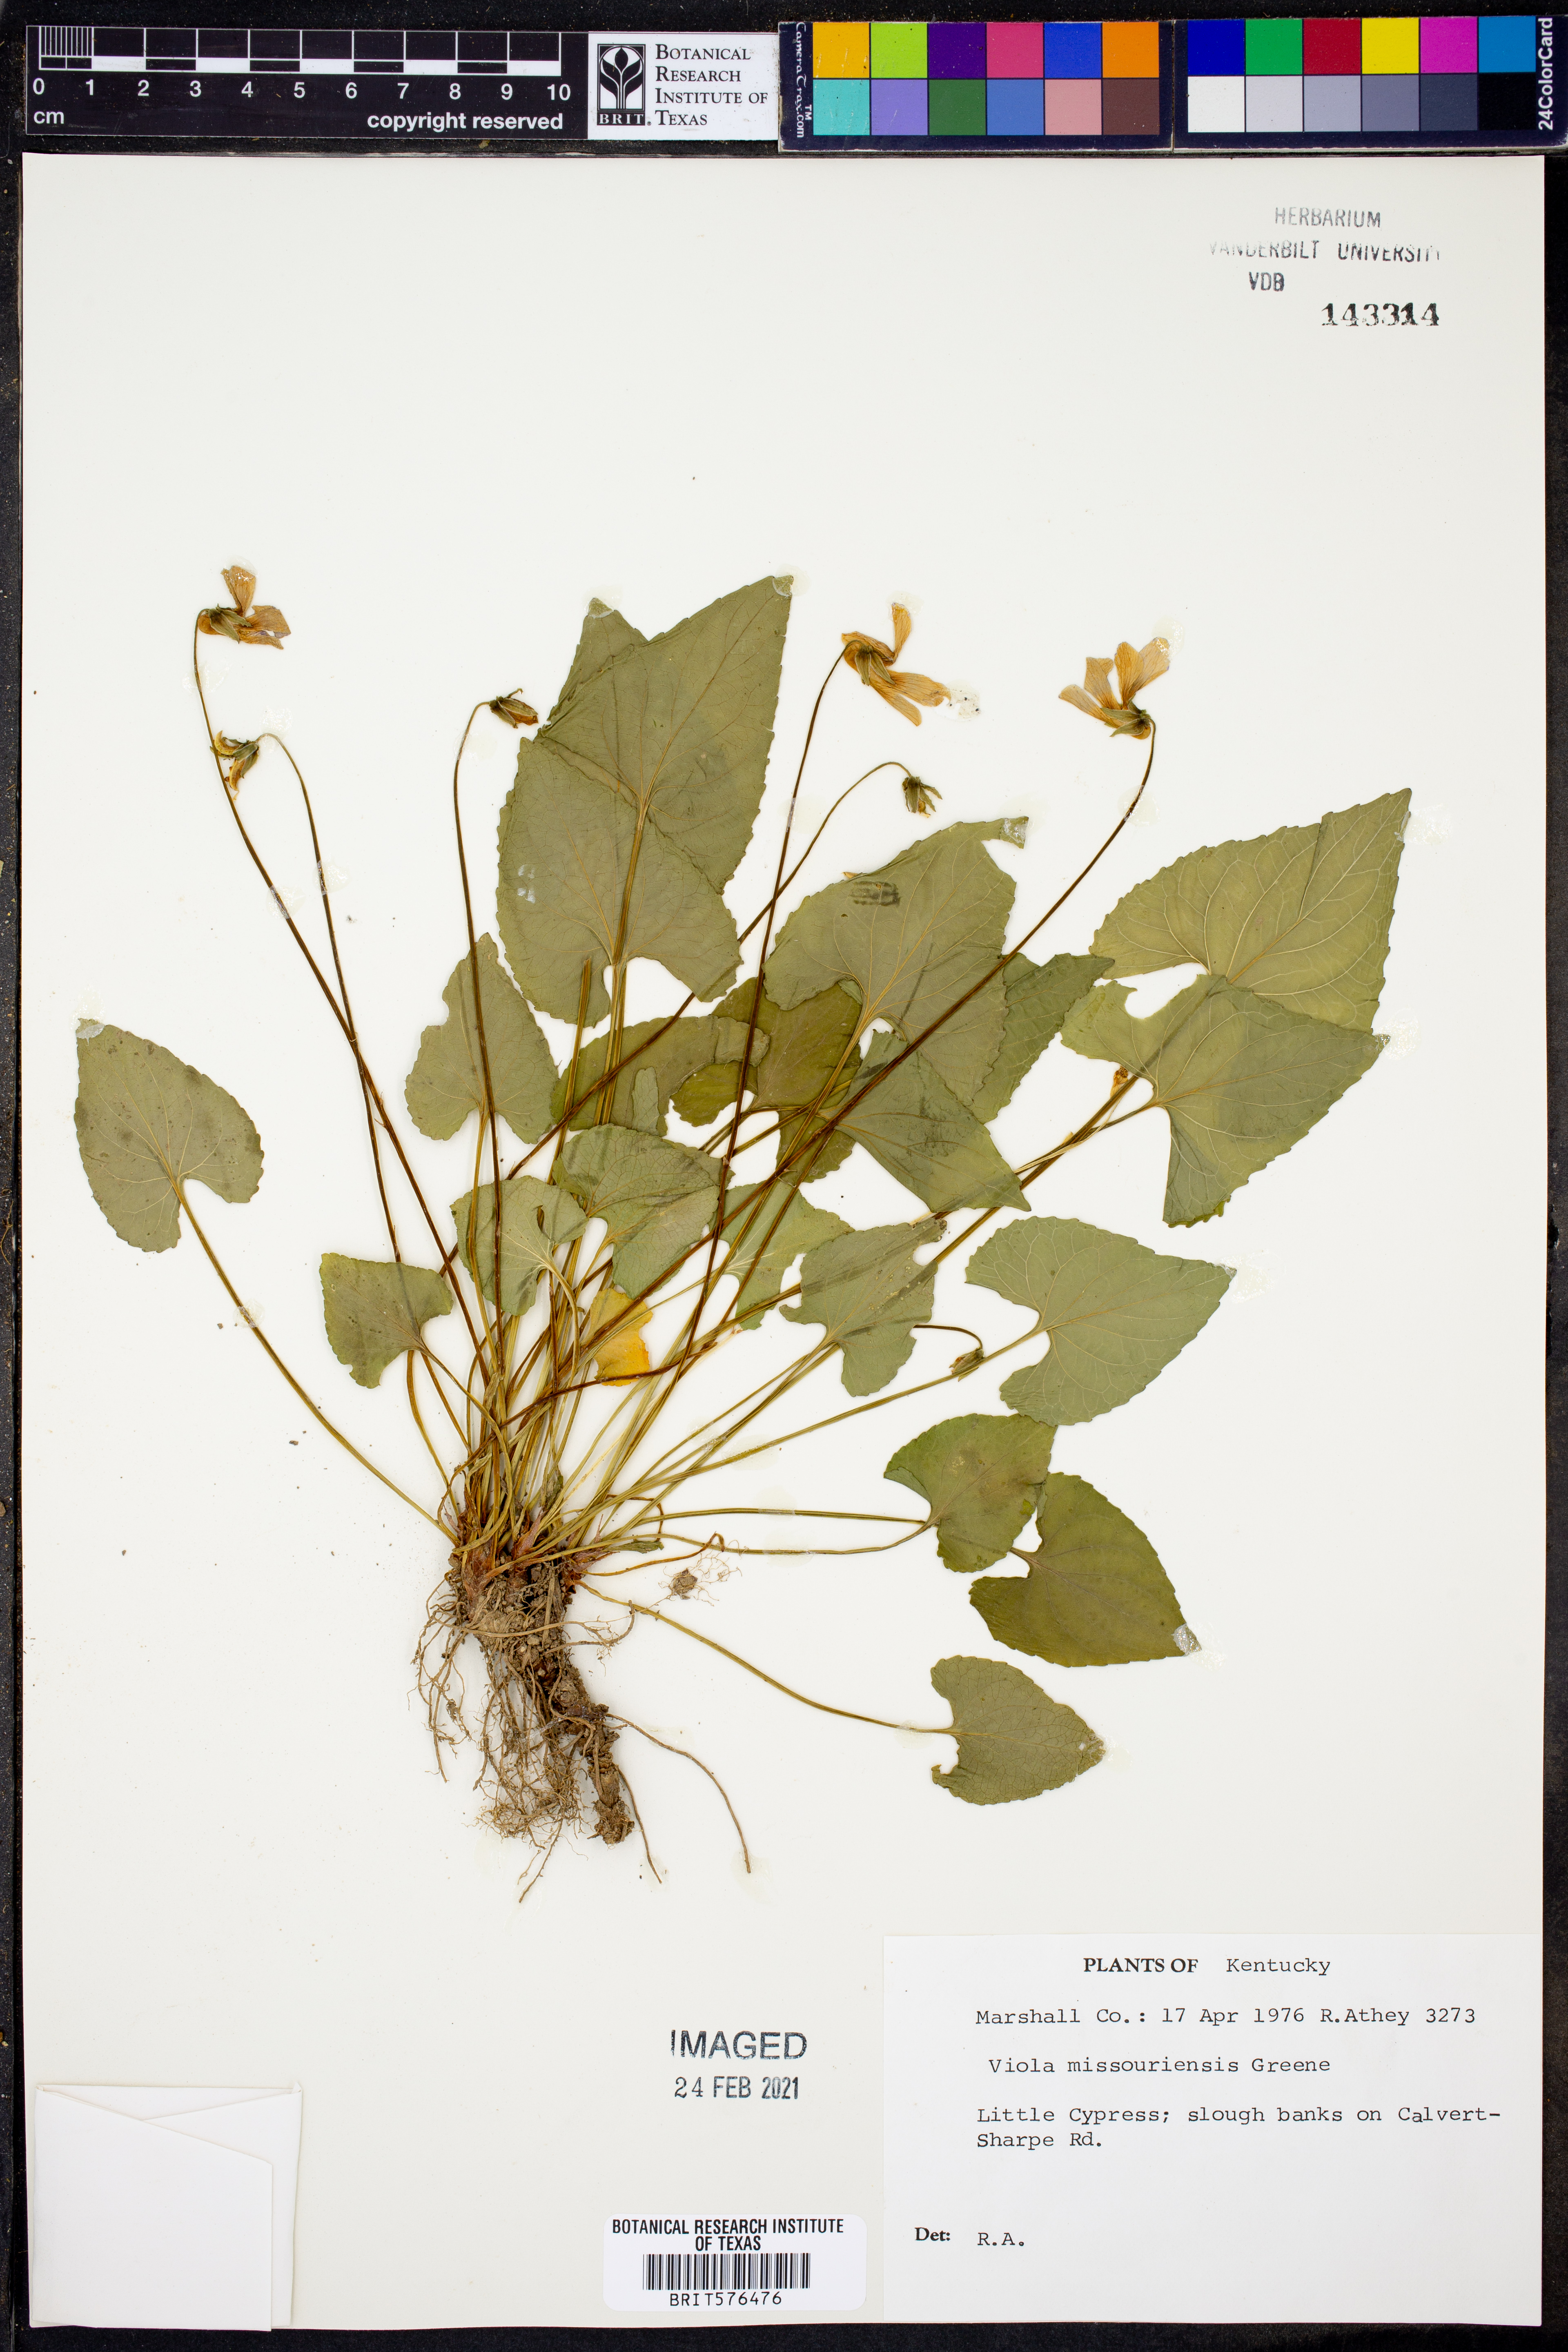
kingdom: Plantae
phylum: Tracheophyta
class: Magnoliopsida
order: Malpighiales
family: Violaceae
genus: Viola
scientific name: Viola missouriensis
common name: Missouri violet
